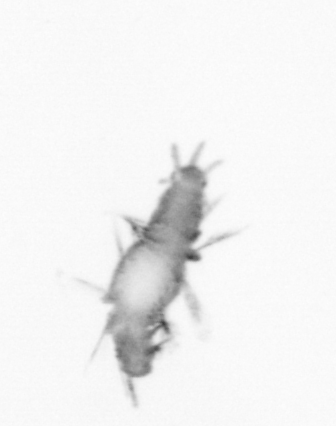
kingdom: Animalia
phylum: Annelida
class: Polychaeta
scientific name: Polychaeta
